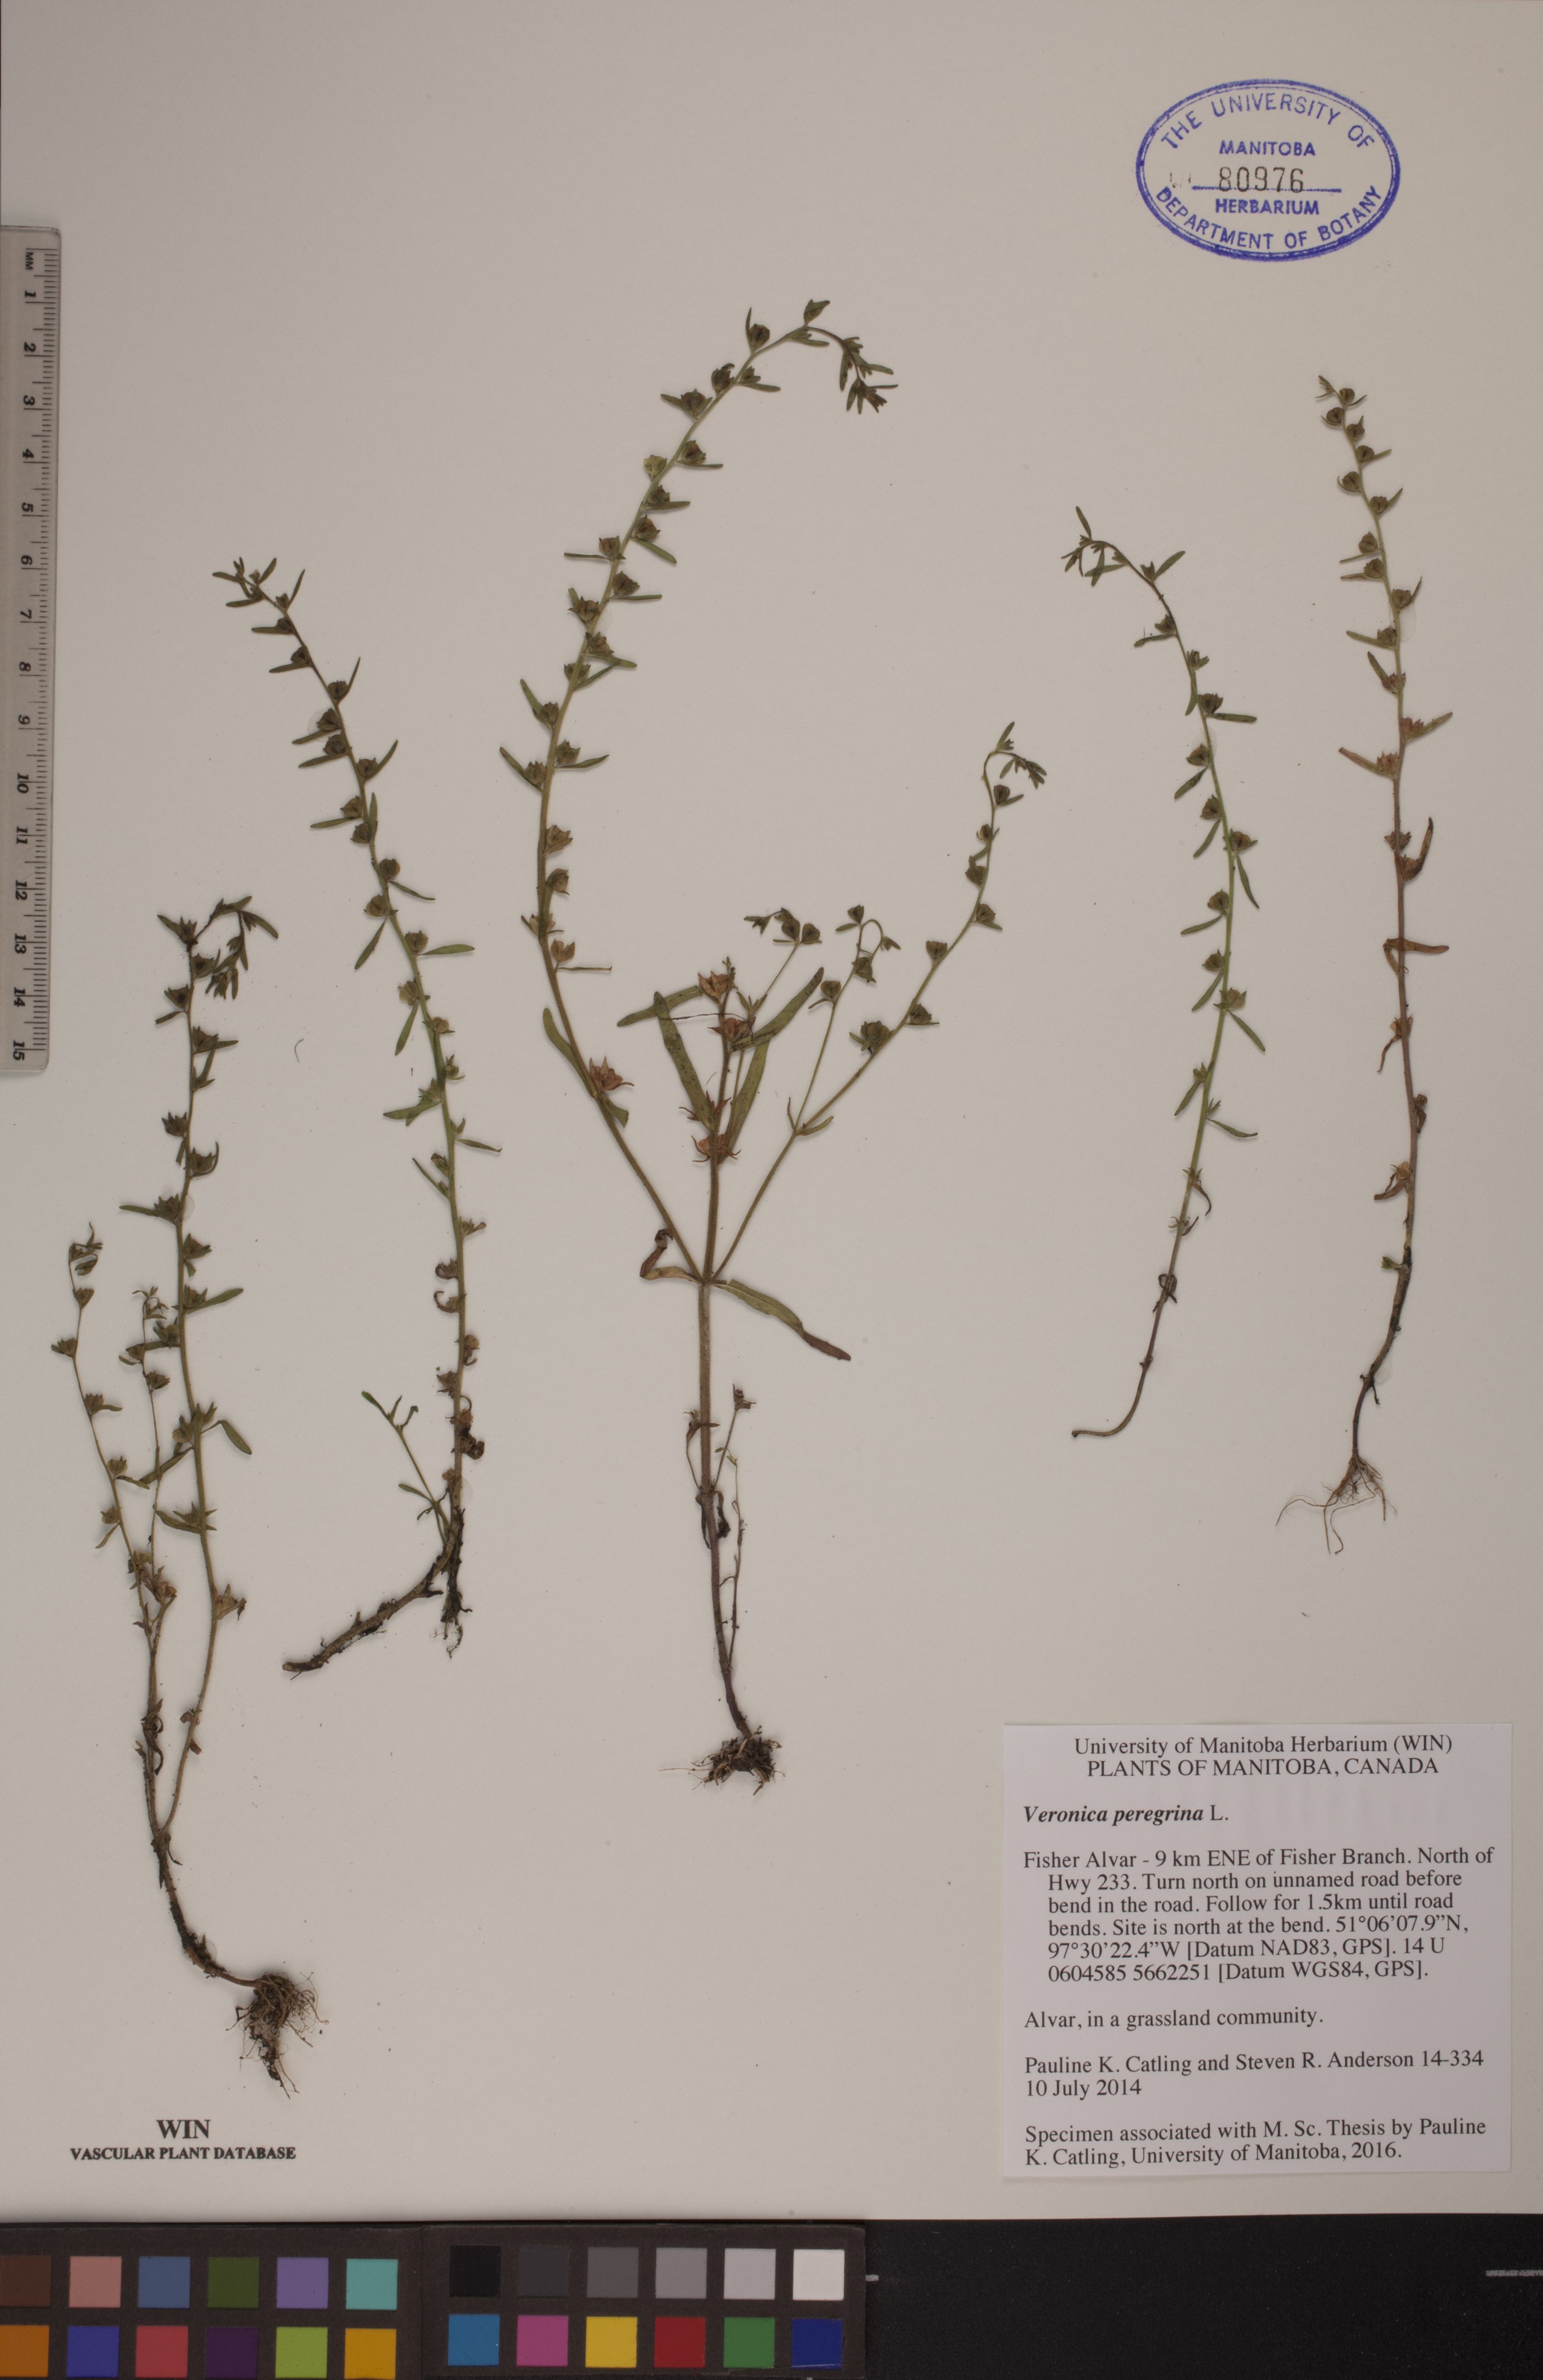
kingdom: Plantae
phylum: Tracheophyta
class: Magnoliopsida
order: Lamiales
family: Plantaginaceae
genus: Veronica
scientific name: Veronica peregrina
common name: Neckweed
